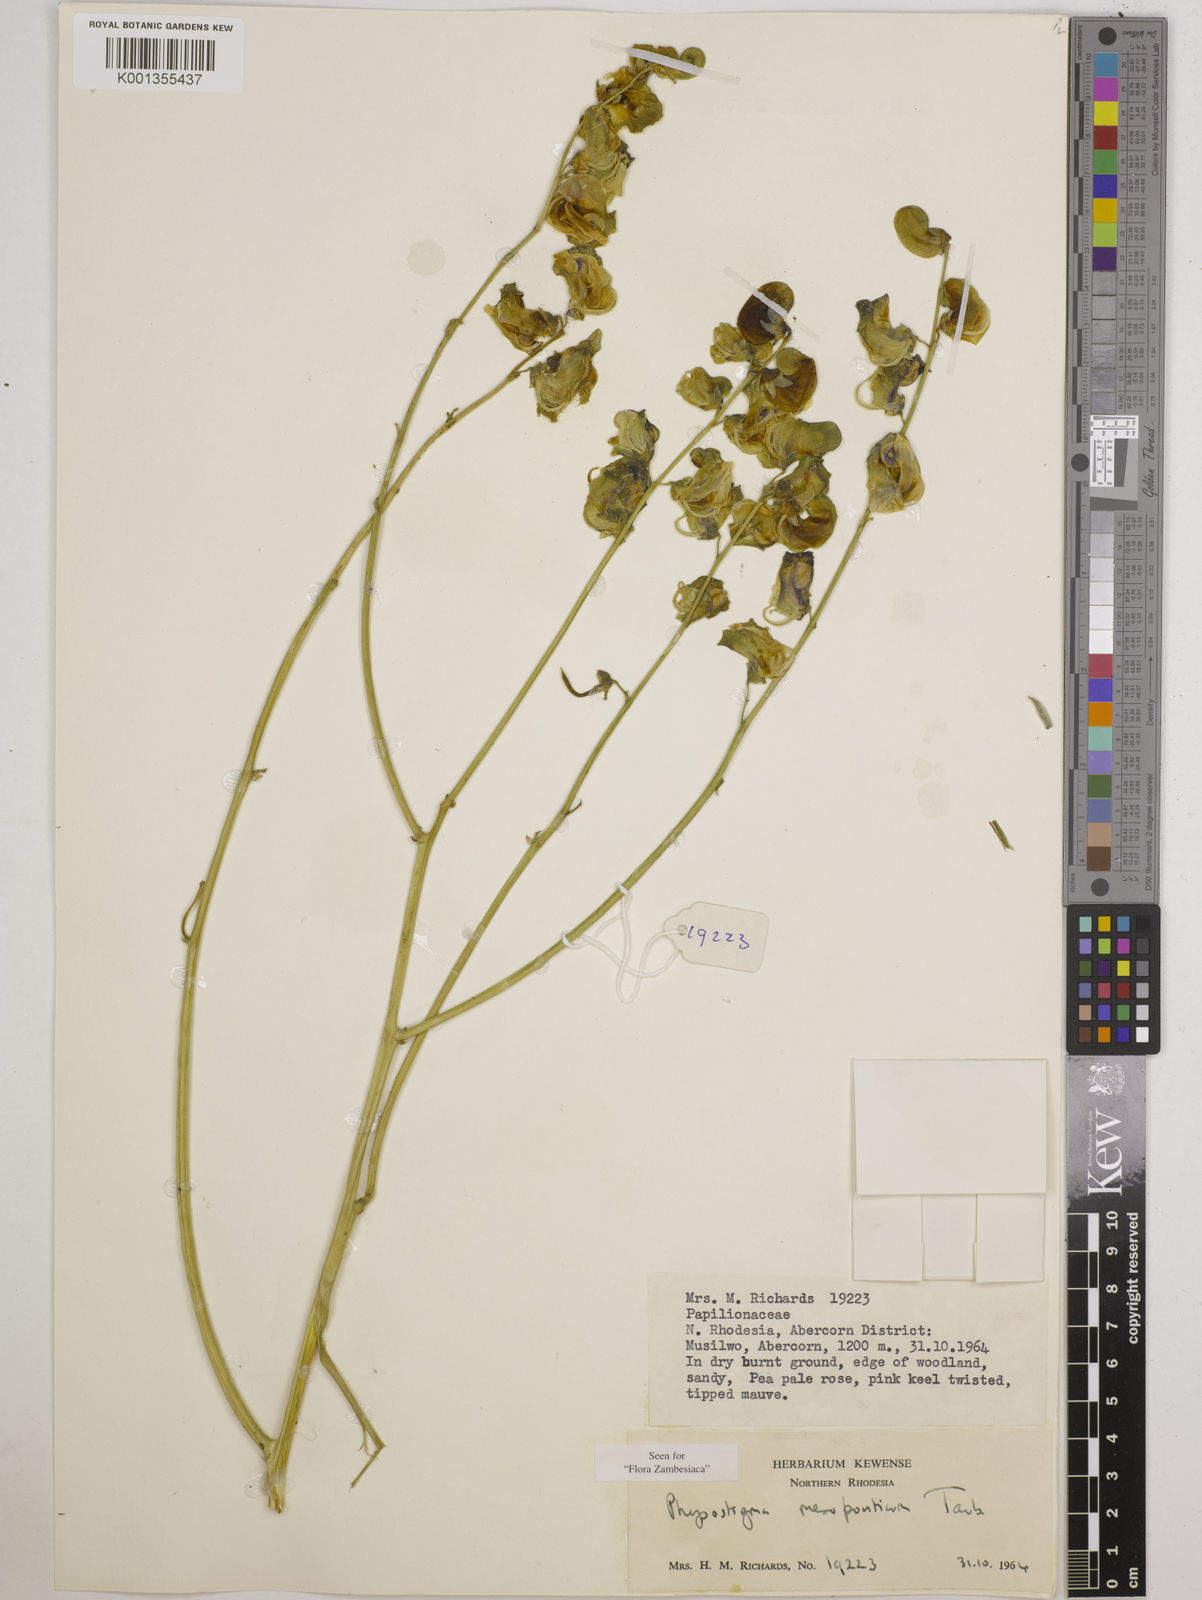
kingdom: Plantae
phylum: Tracheophyta
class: Magnoliopsida
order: Fabales
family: Fabaceae
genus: Physostigma
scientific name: Physostigma mesoponticum
